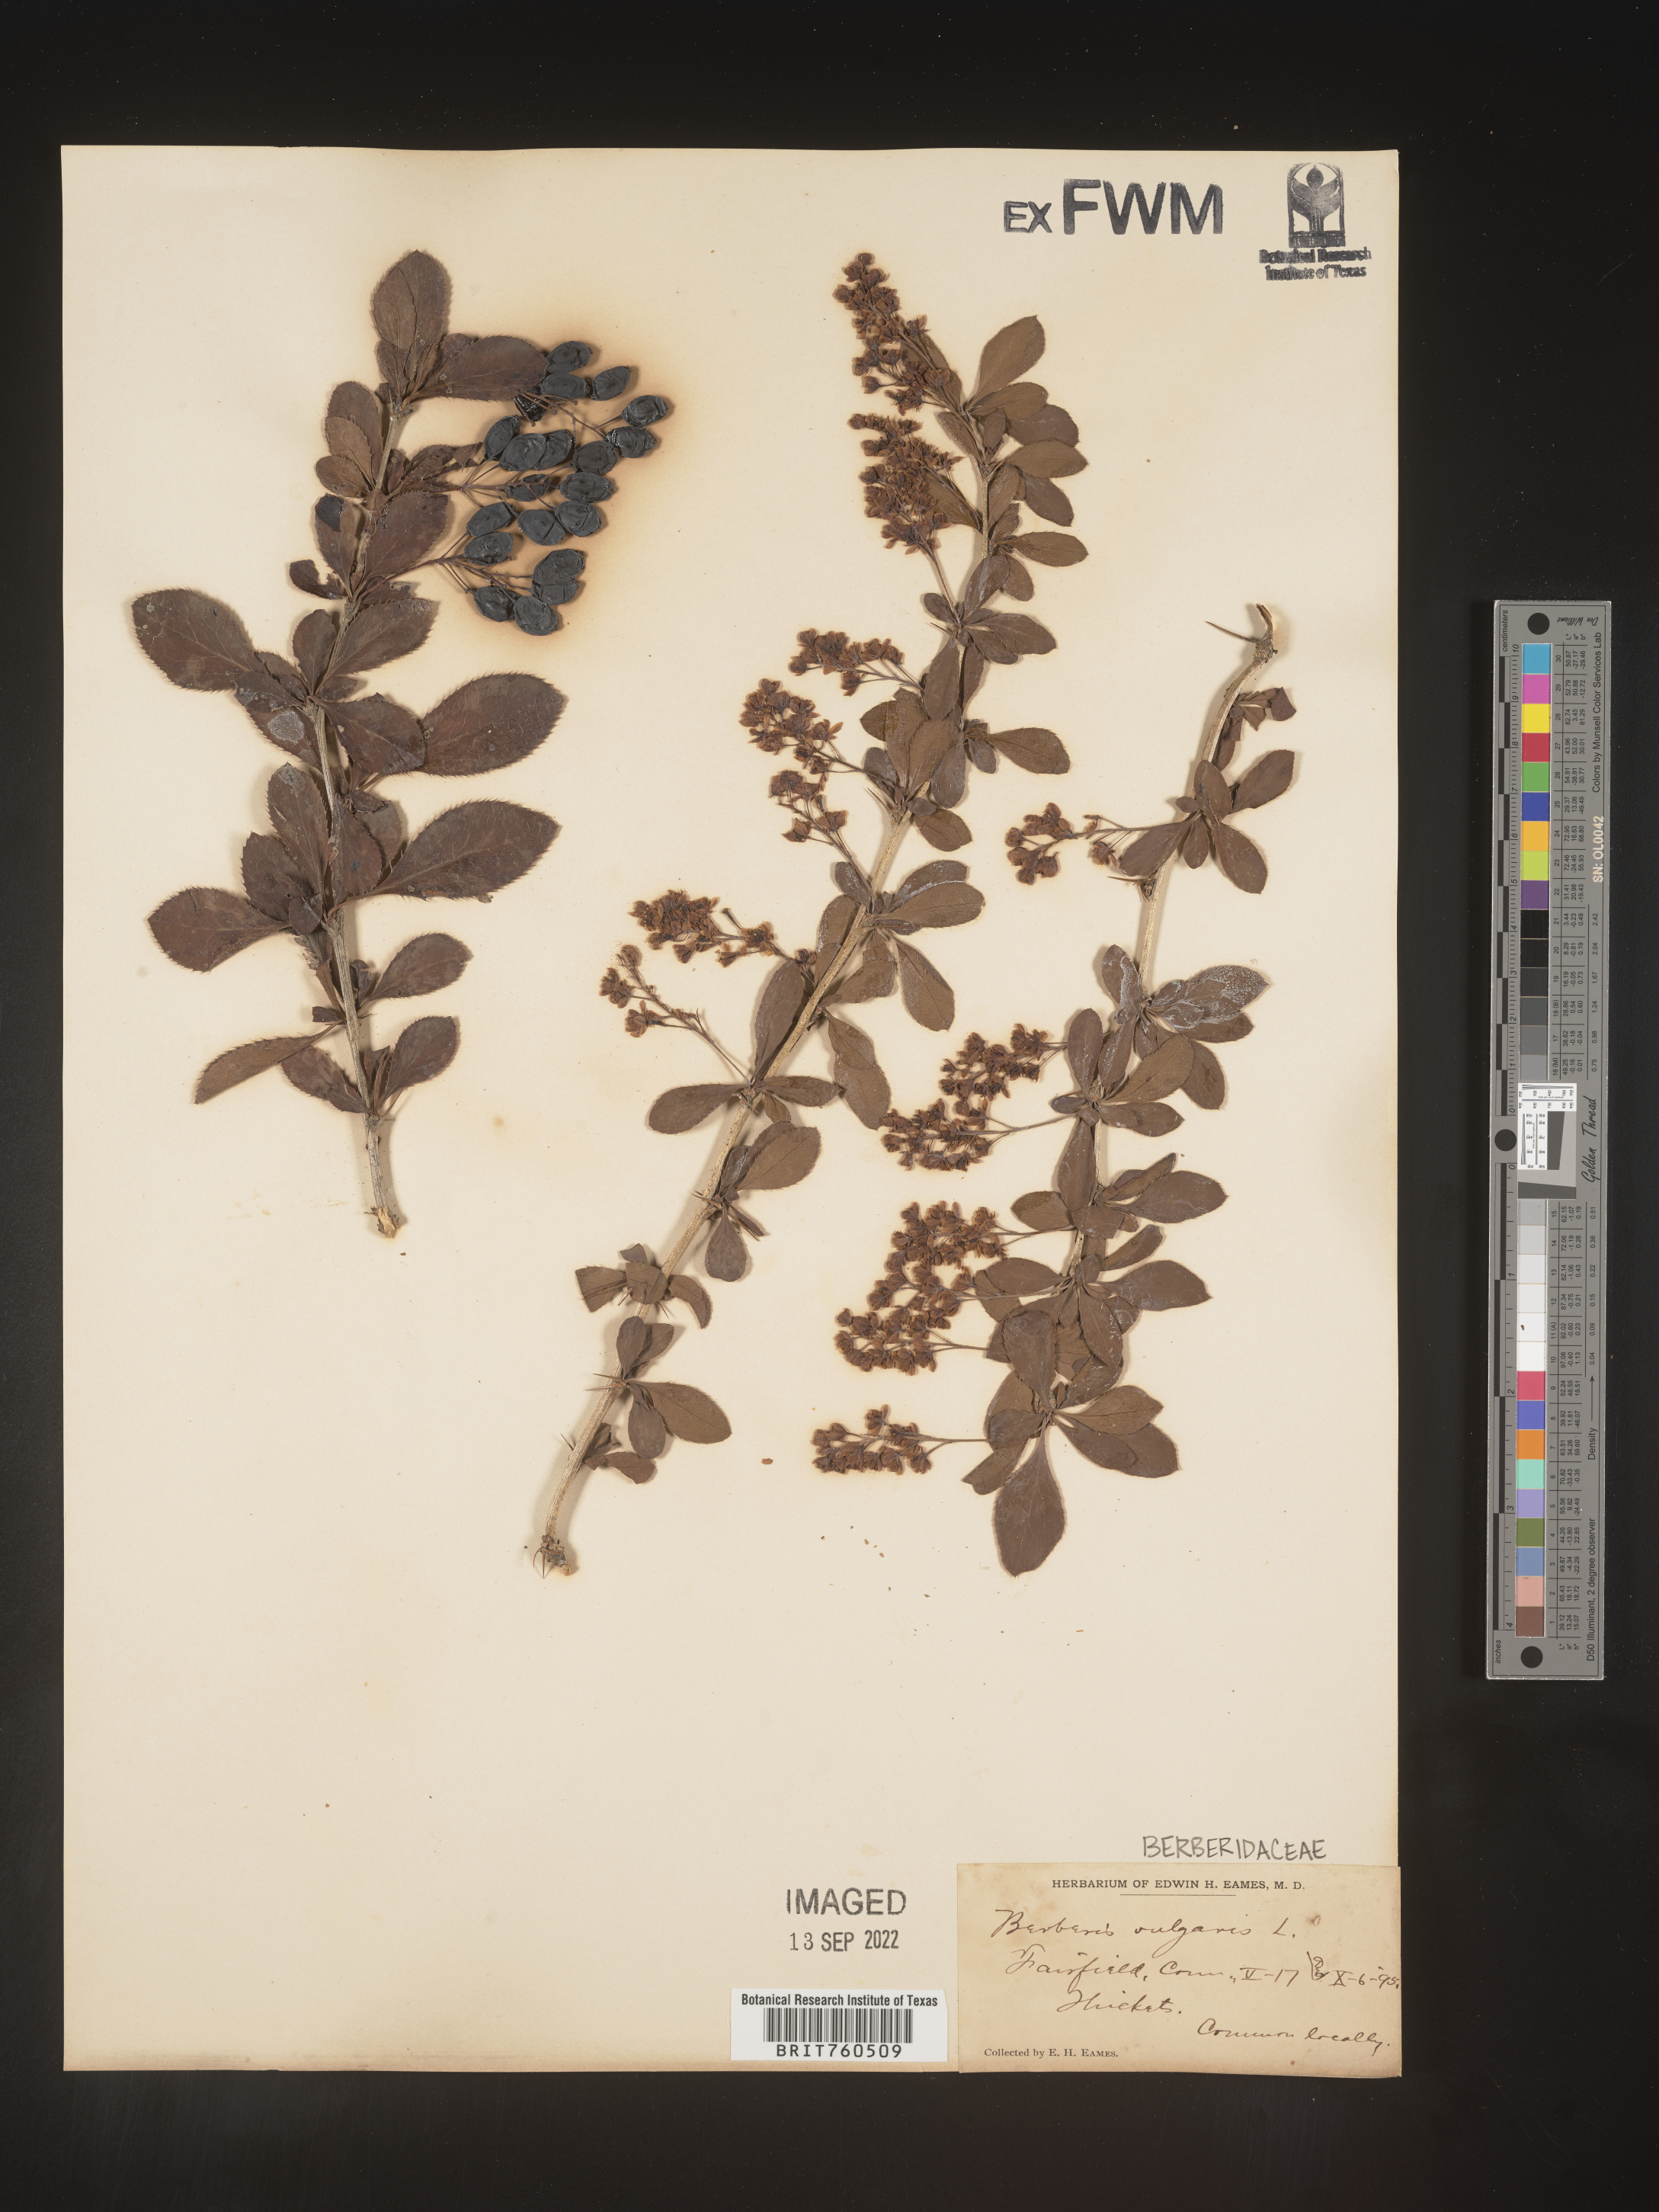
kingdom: Plantae
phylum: Tracheophyta
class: Magnoliopsida
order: Ranunculales
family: Berberidaceae
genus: Berberis
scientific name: Berberis
